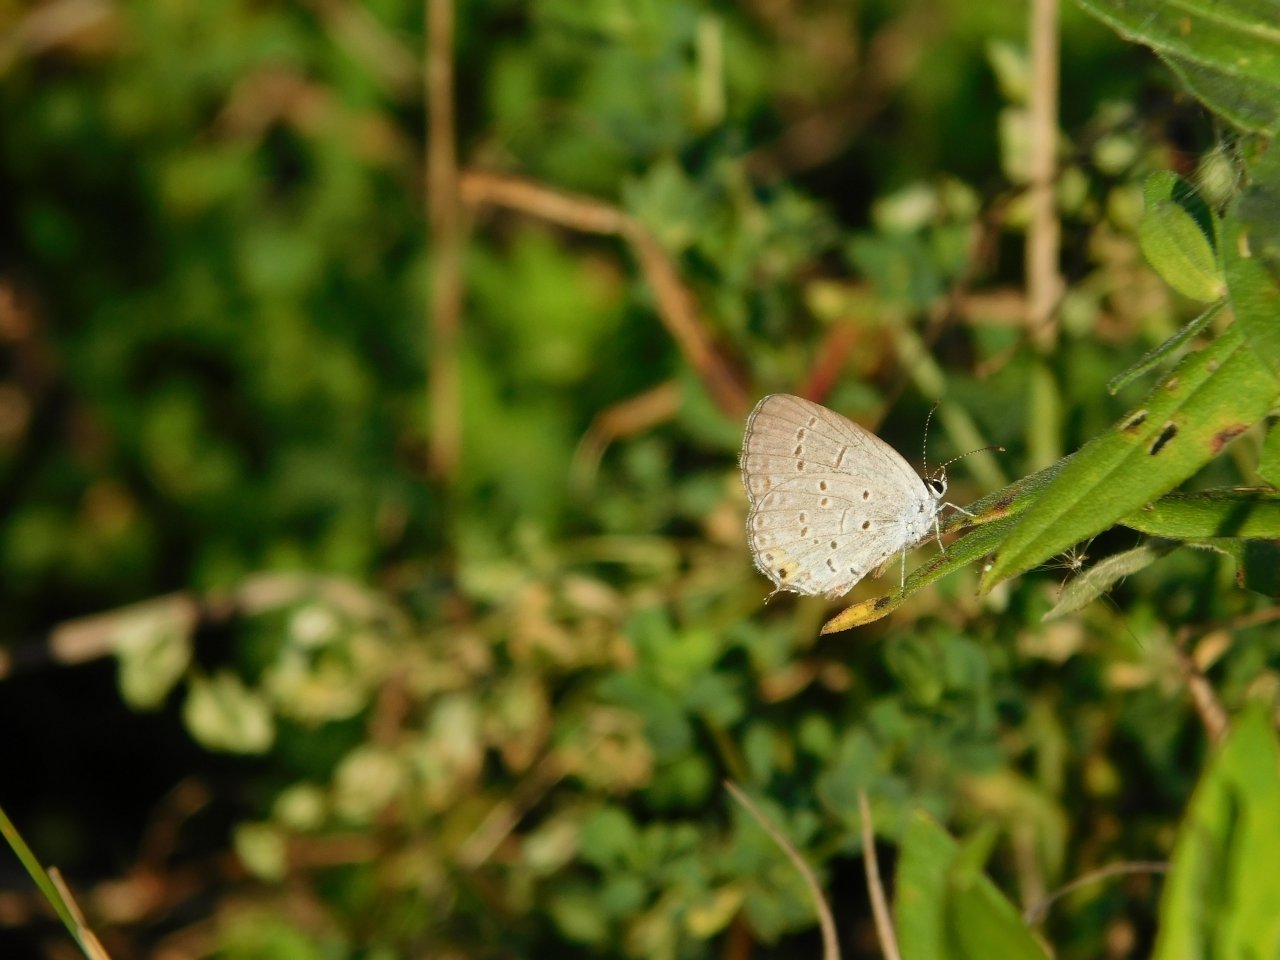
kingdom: Animalia
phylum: Arthropoda
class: Insecta
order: Lepidoptera
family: Lycaenidae
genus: Elkalyce
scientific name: Elkalyce comyntas
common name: Eastern Tailed-Blue
